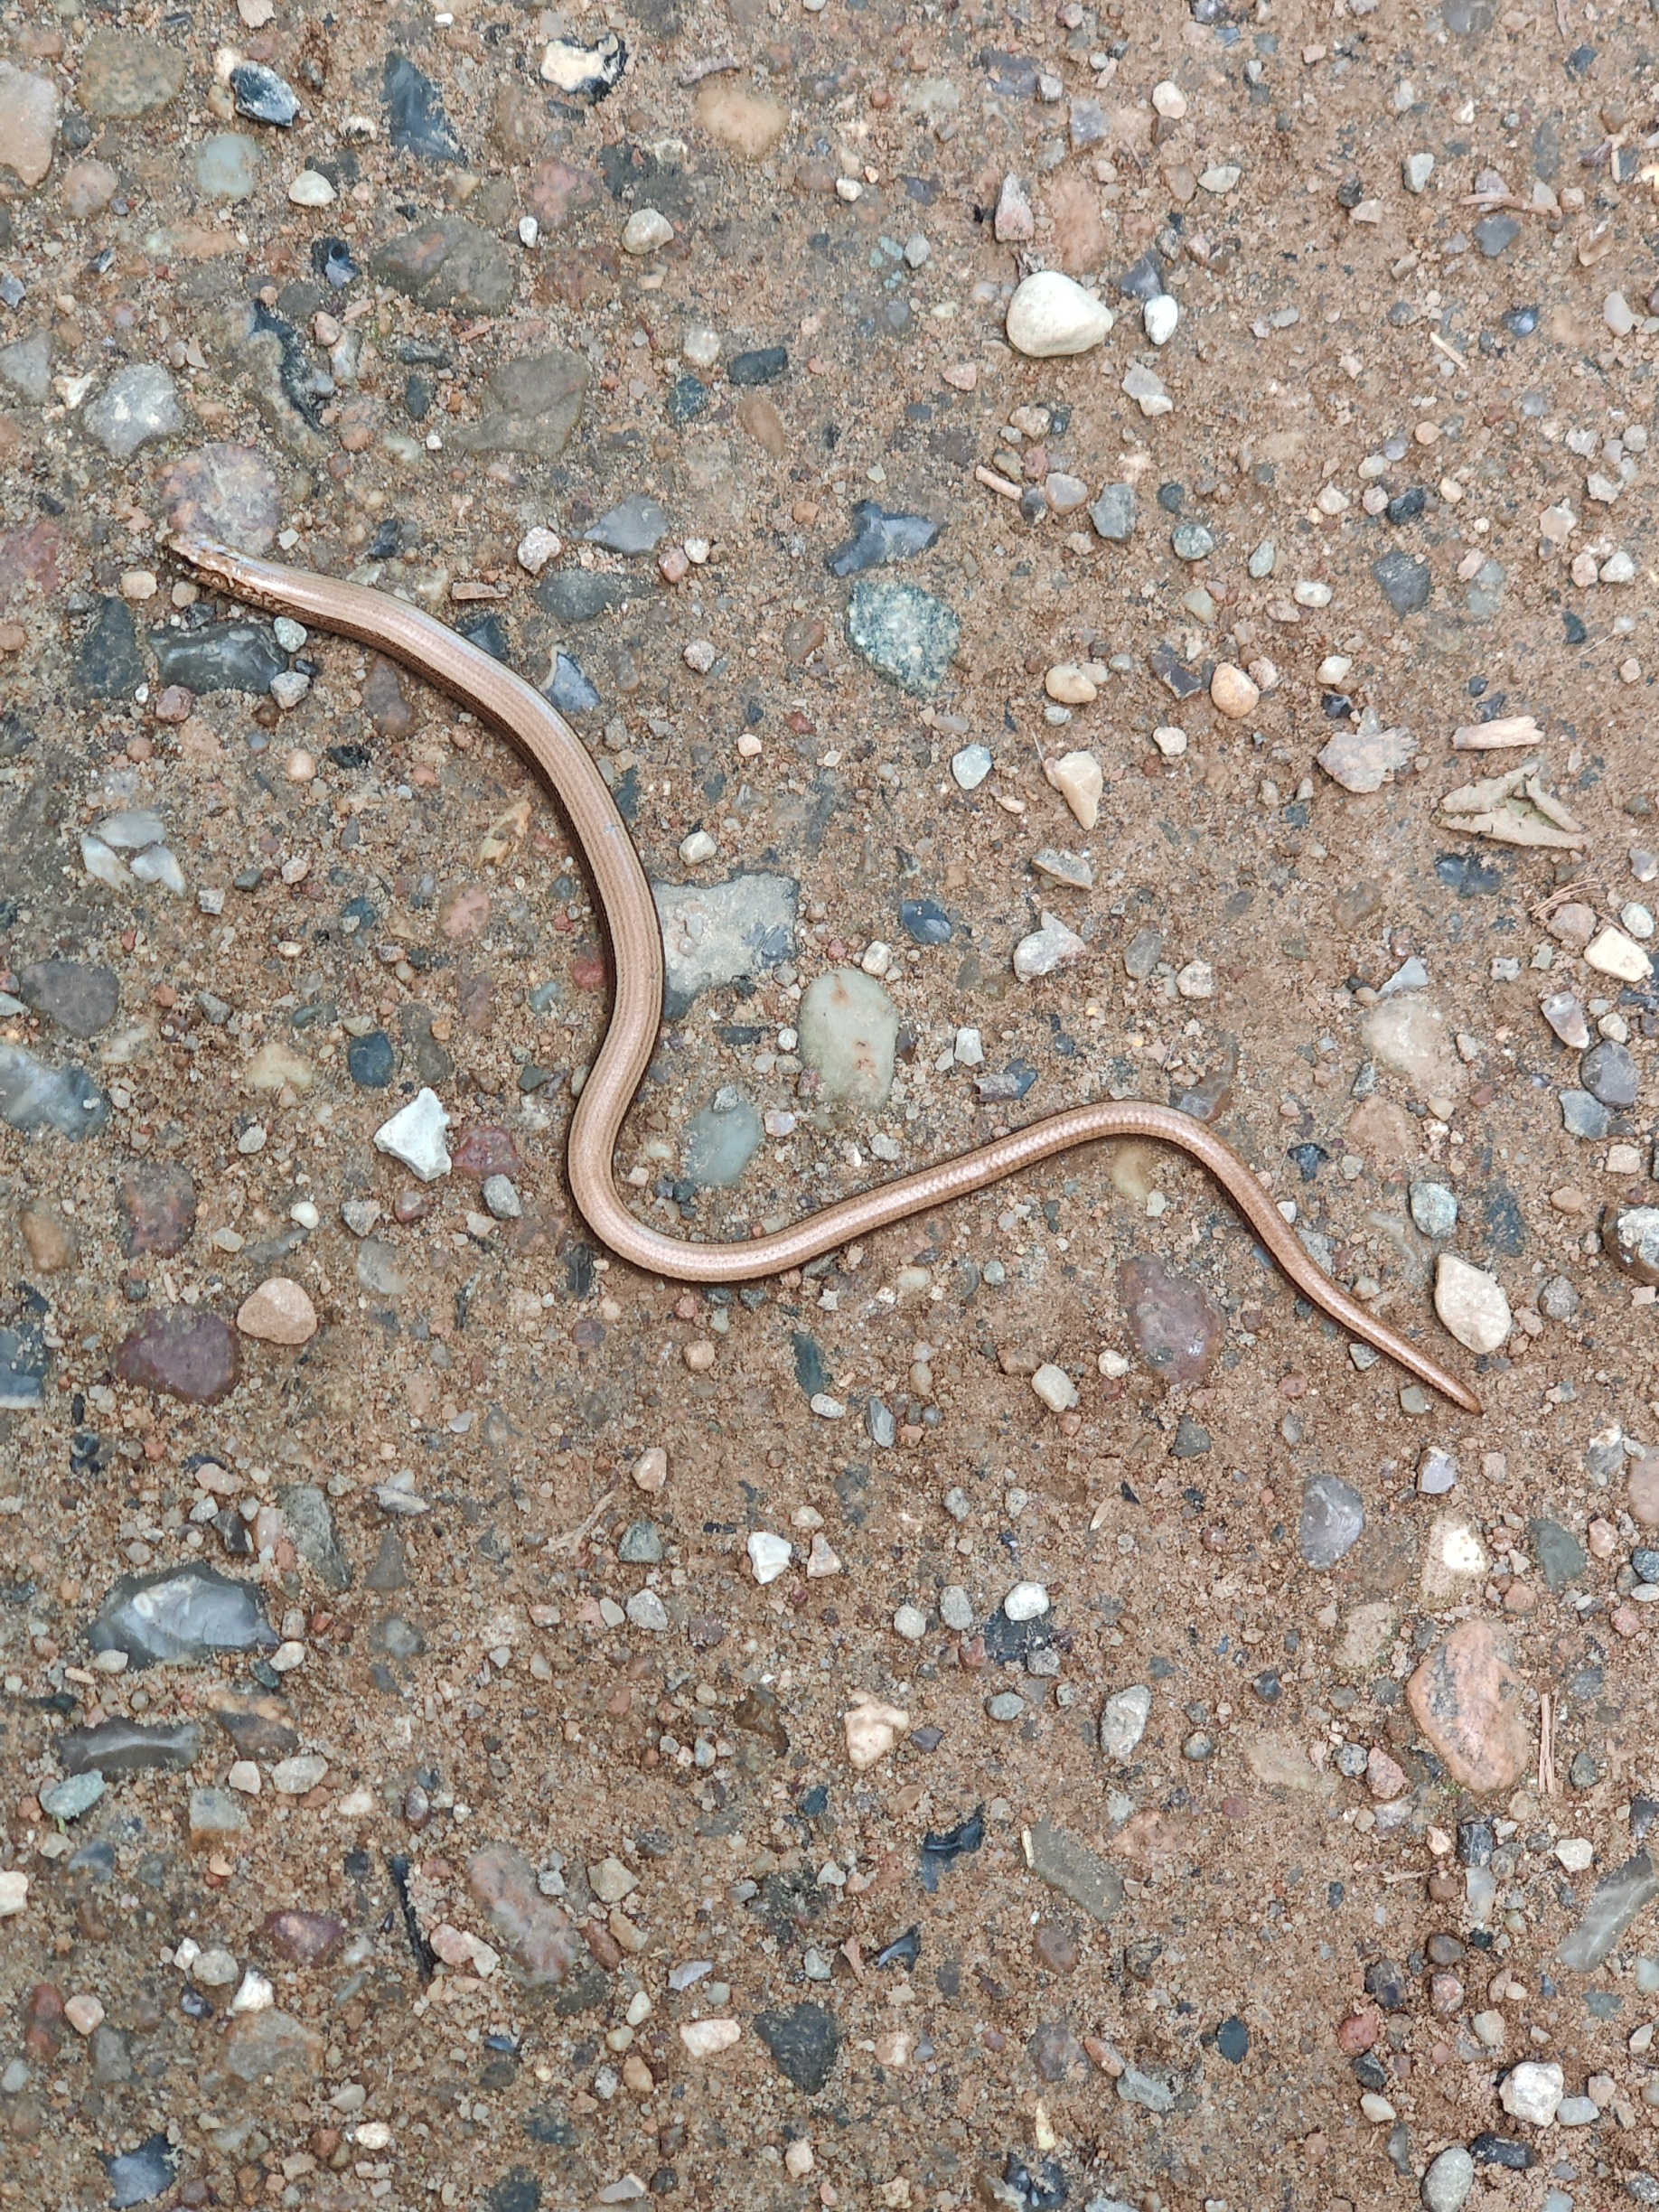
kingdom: Animalia
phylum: Chordata
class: Squamata
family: Anguidae
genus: Anguis
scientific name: Anguis fragilis
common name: Stålorm
